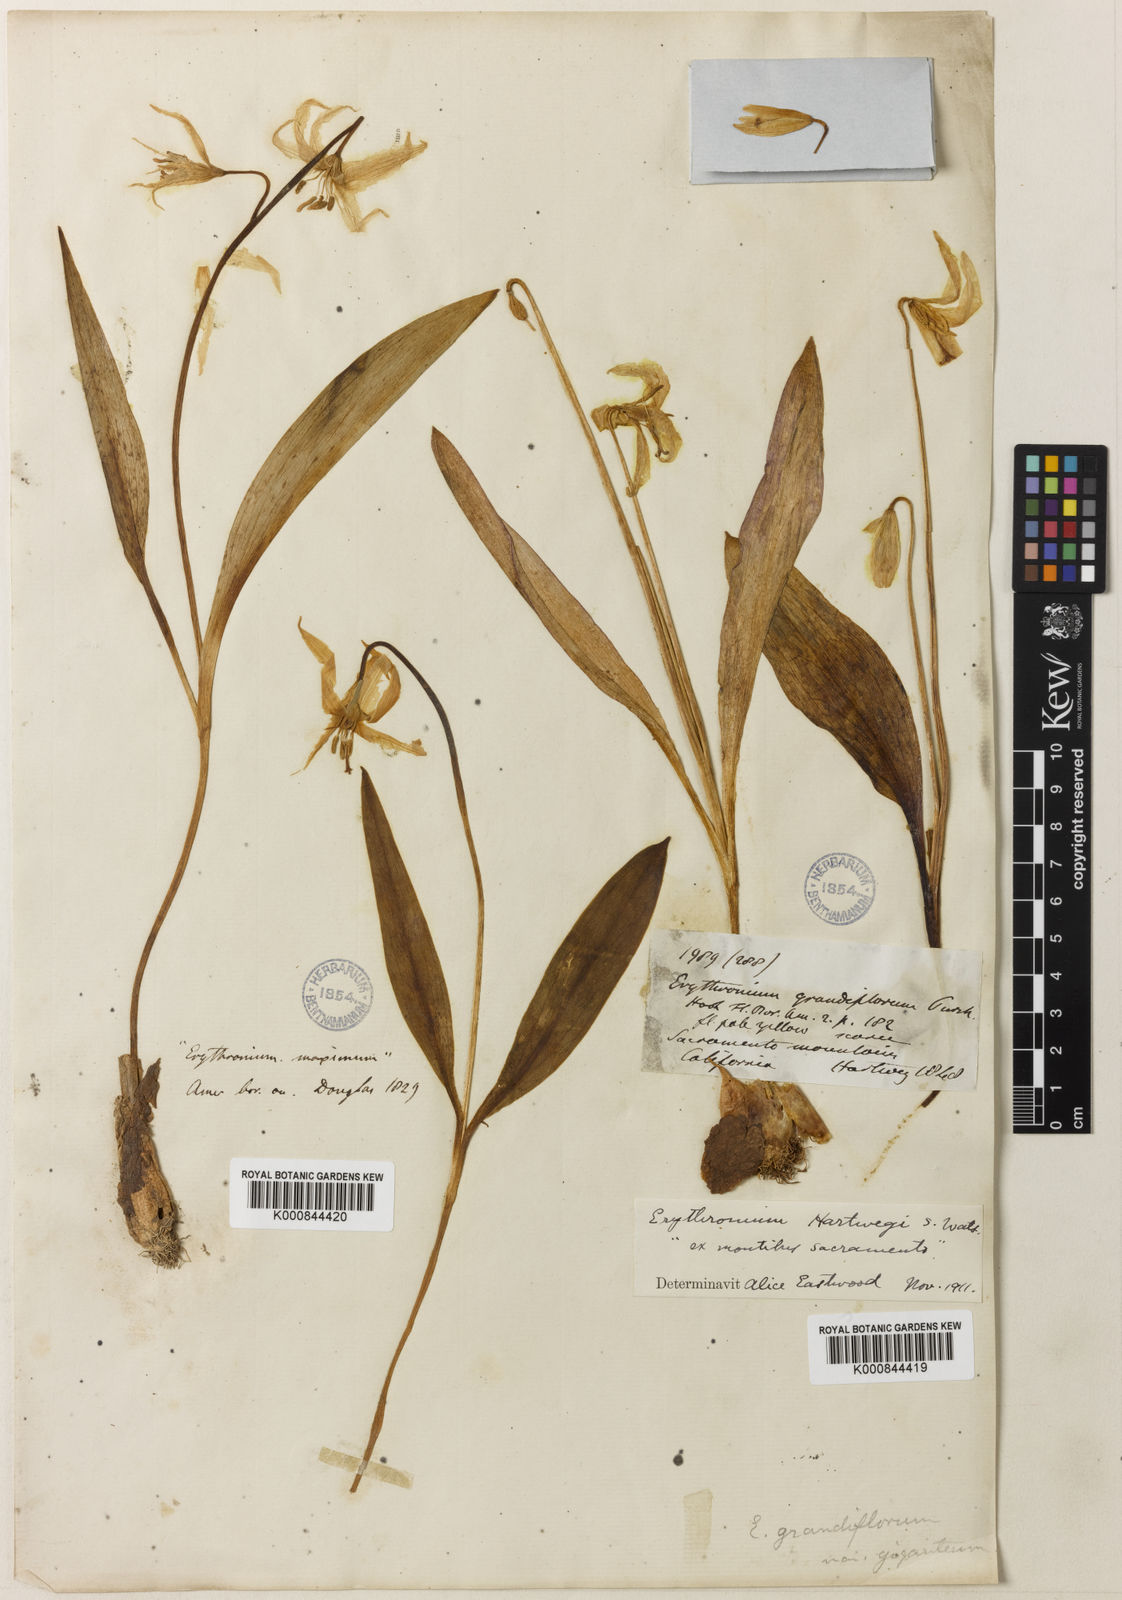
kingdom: Plantae
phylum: Tracheophyta
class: Liliopsida
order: Liliales
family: Liliaceae
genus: Erythronium
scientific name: Erythronium multiscapideum
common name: Sierra foothills fawn-lily
